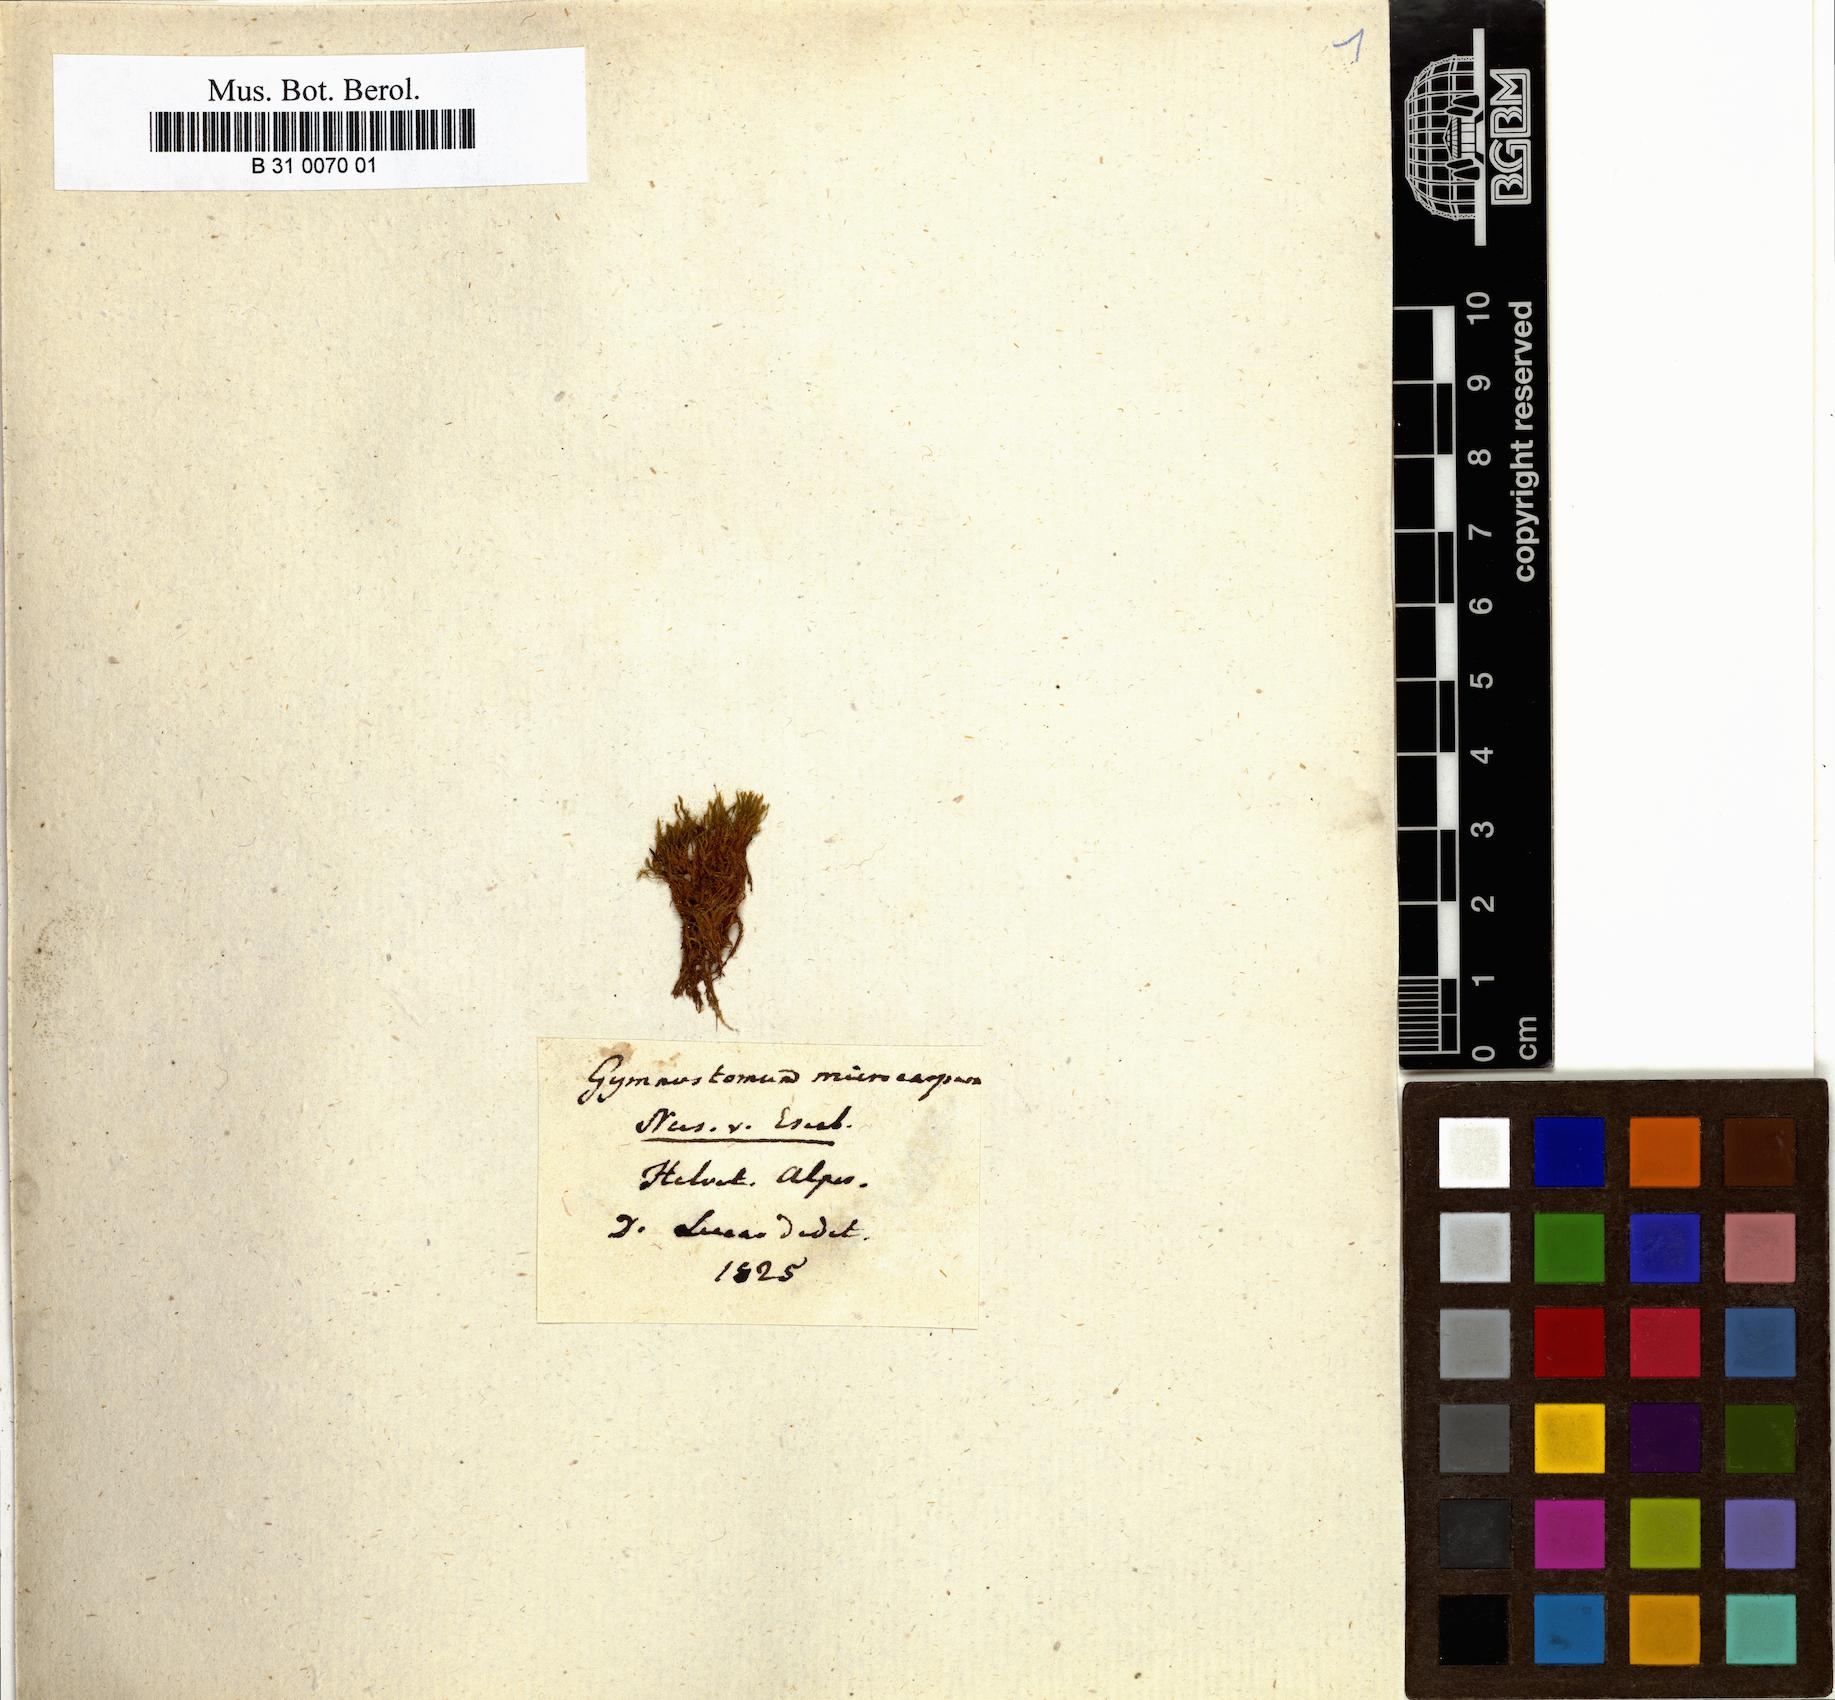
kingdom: Plantae
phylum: Bryophyta
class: Bryopsida
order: Pottiales
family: Pottiaceae
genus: Hymenostylium
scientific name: Hymenostylium recurvirostrum
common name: Hook-beak tufa-moss
